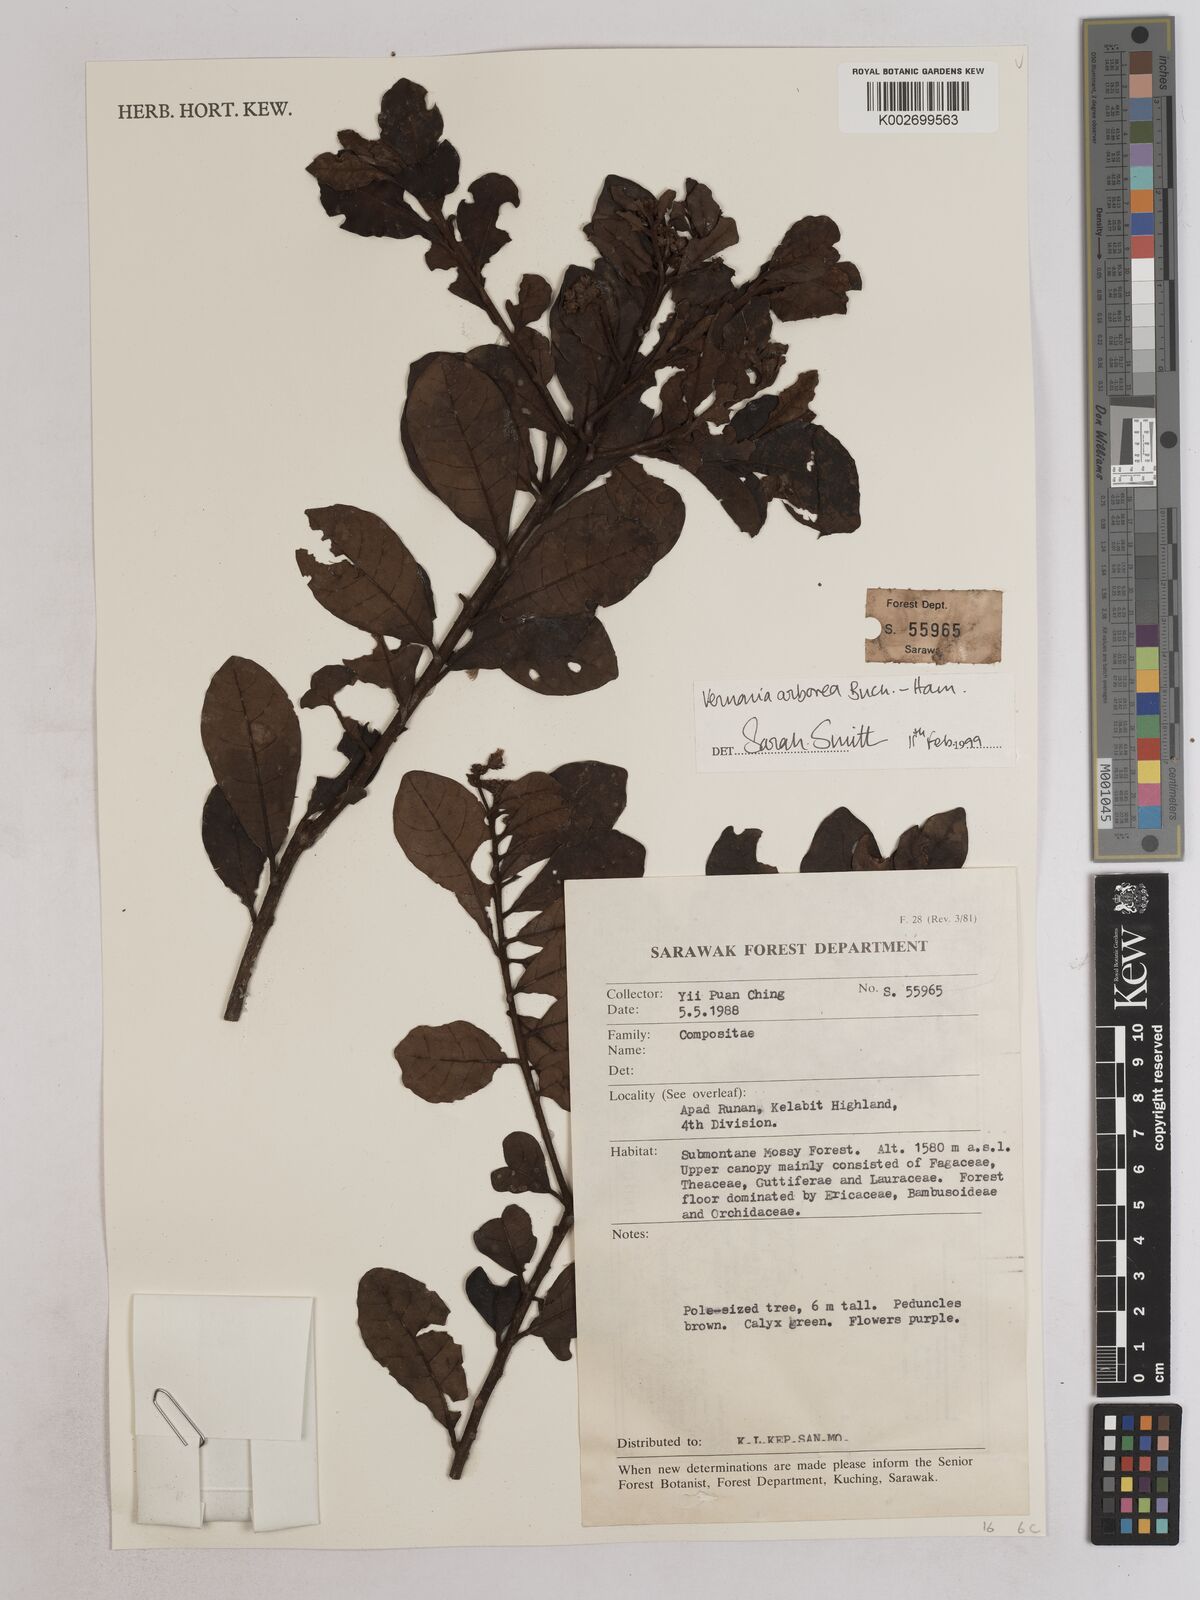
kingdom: Plantae
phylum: Tracheophyta
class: Magnoliopsida
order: Asterales
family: Asteraceae
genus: Strobocalyx
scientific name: Strobocalyx arborea
